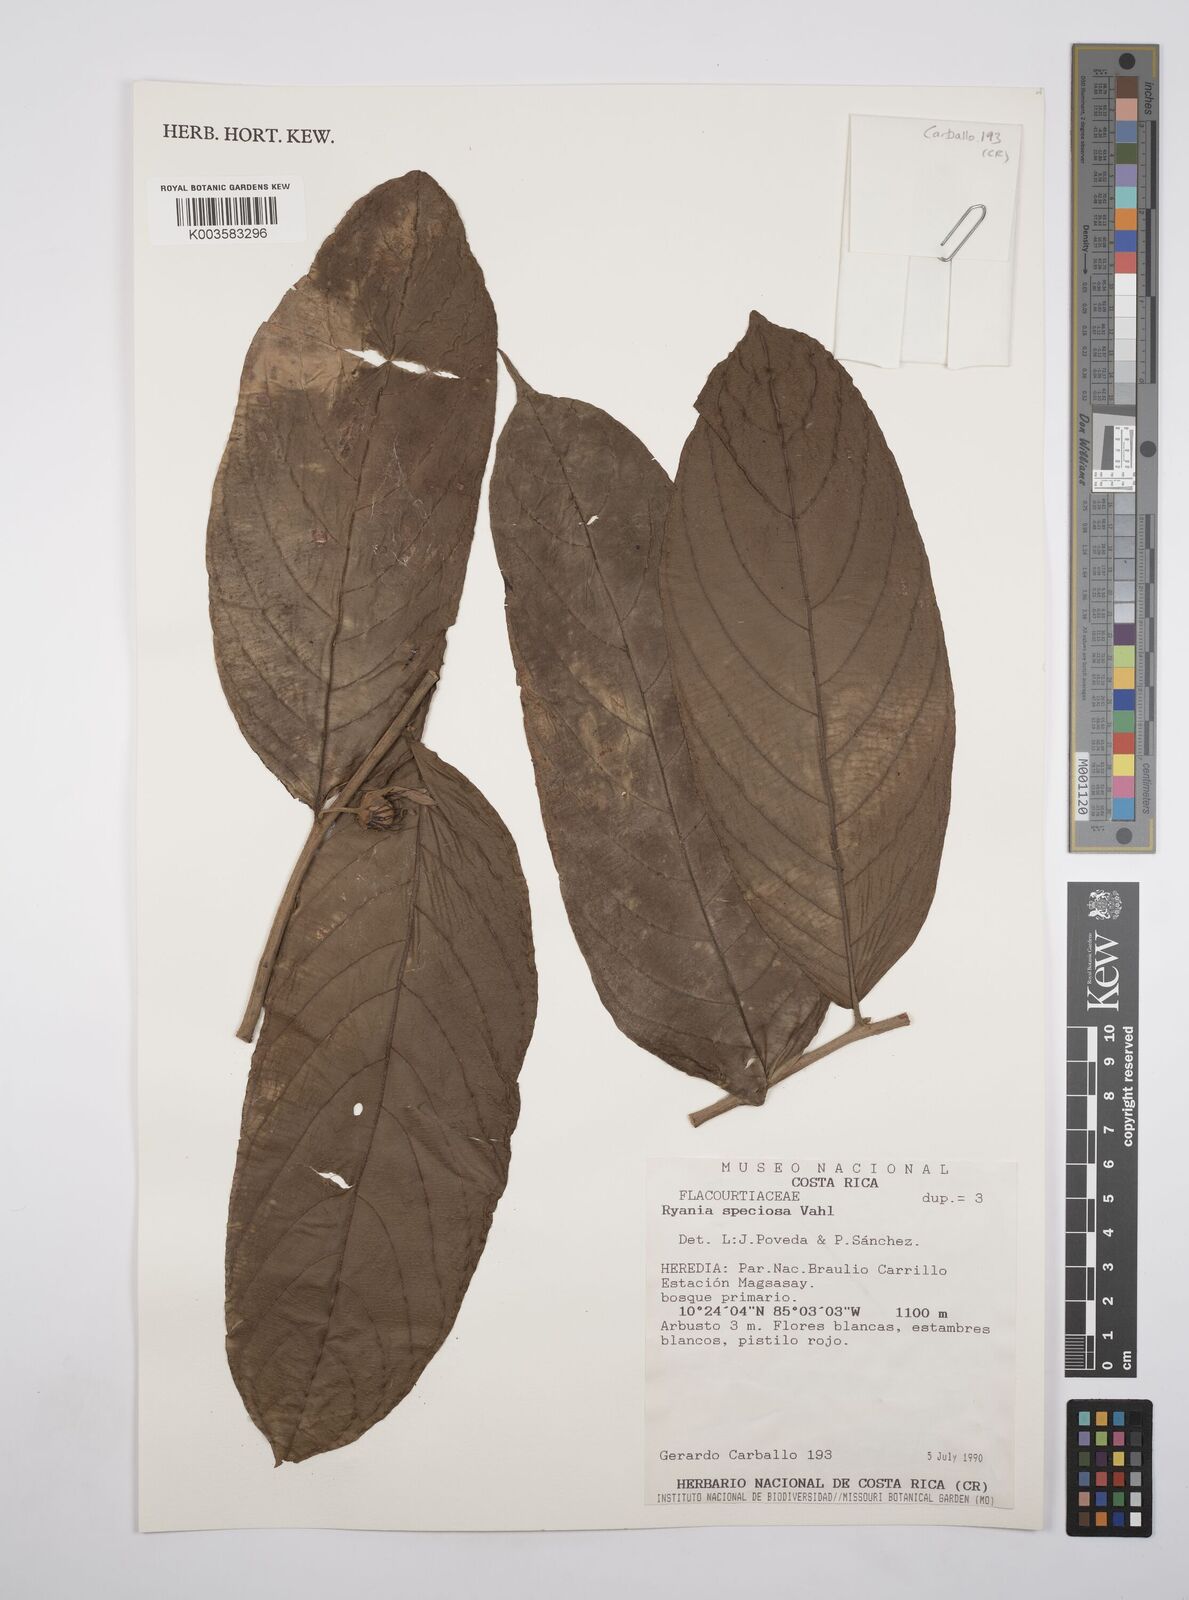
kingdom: Plantae
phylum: Tracheophyta
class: Magnoliopsida
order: Malpighiales
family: Salicaceae
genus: Ryania
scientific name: Ryania speciosa
